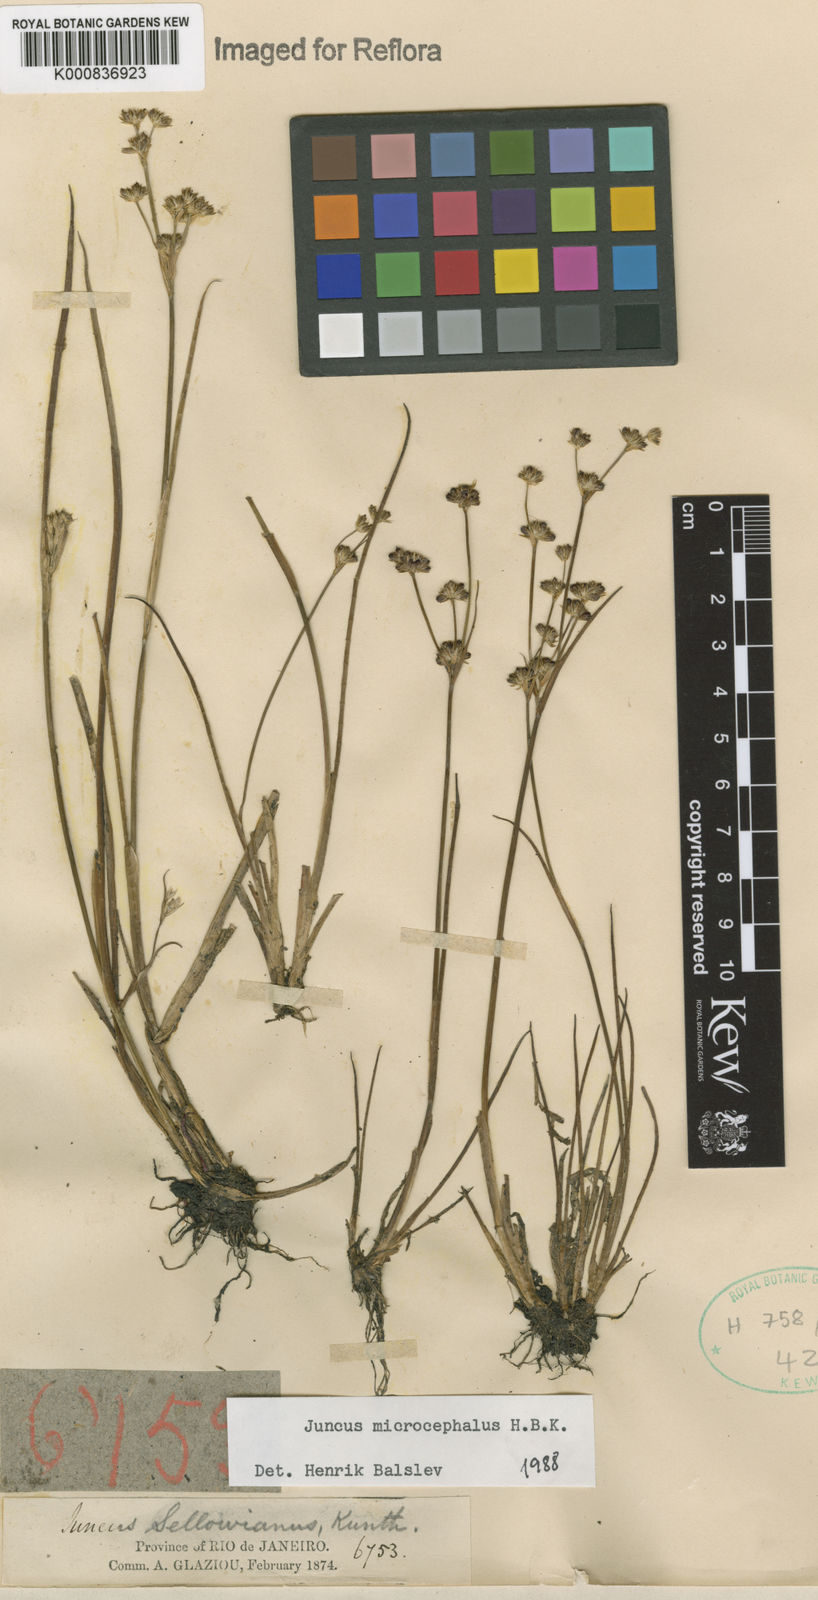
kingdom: Plantae
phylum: Tracheophyta
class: Liliopsida
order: Poales
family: Juncaceae
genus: Juncus
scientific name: Juncus microcephalus
